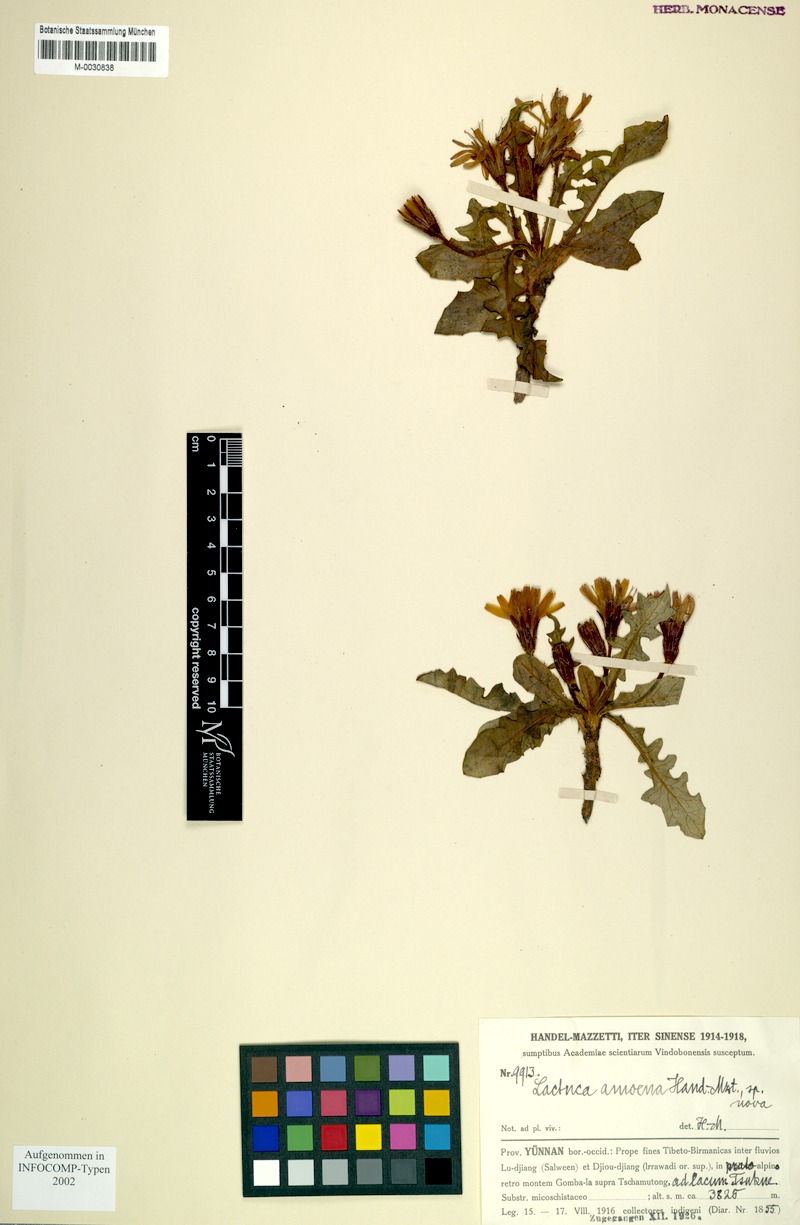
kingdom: Plantae
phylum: Tracheophyta
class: Magnoliopsida
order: Asterales
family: Asteraceae
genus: Lihengia
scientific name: Lihengia amoena
